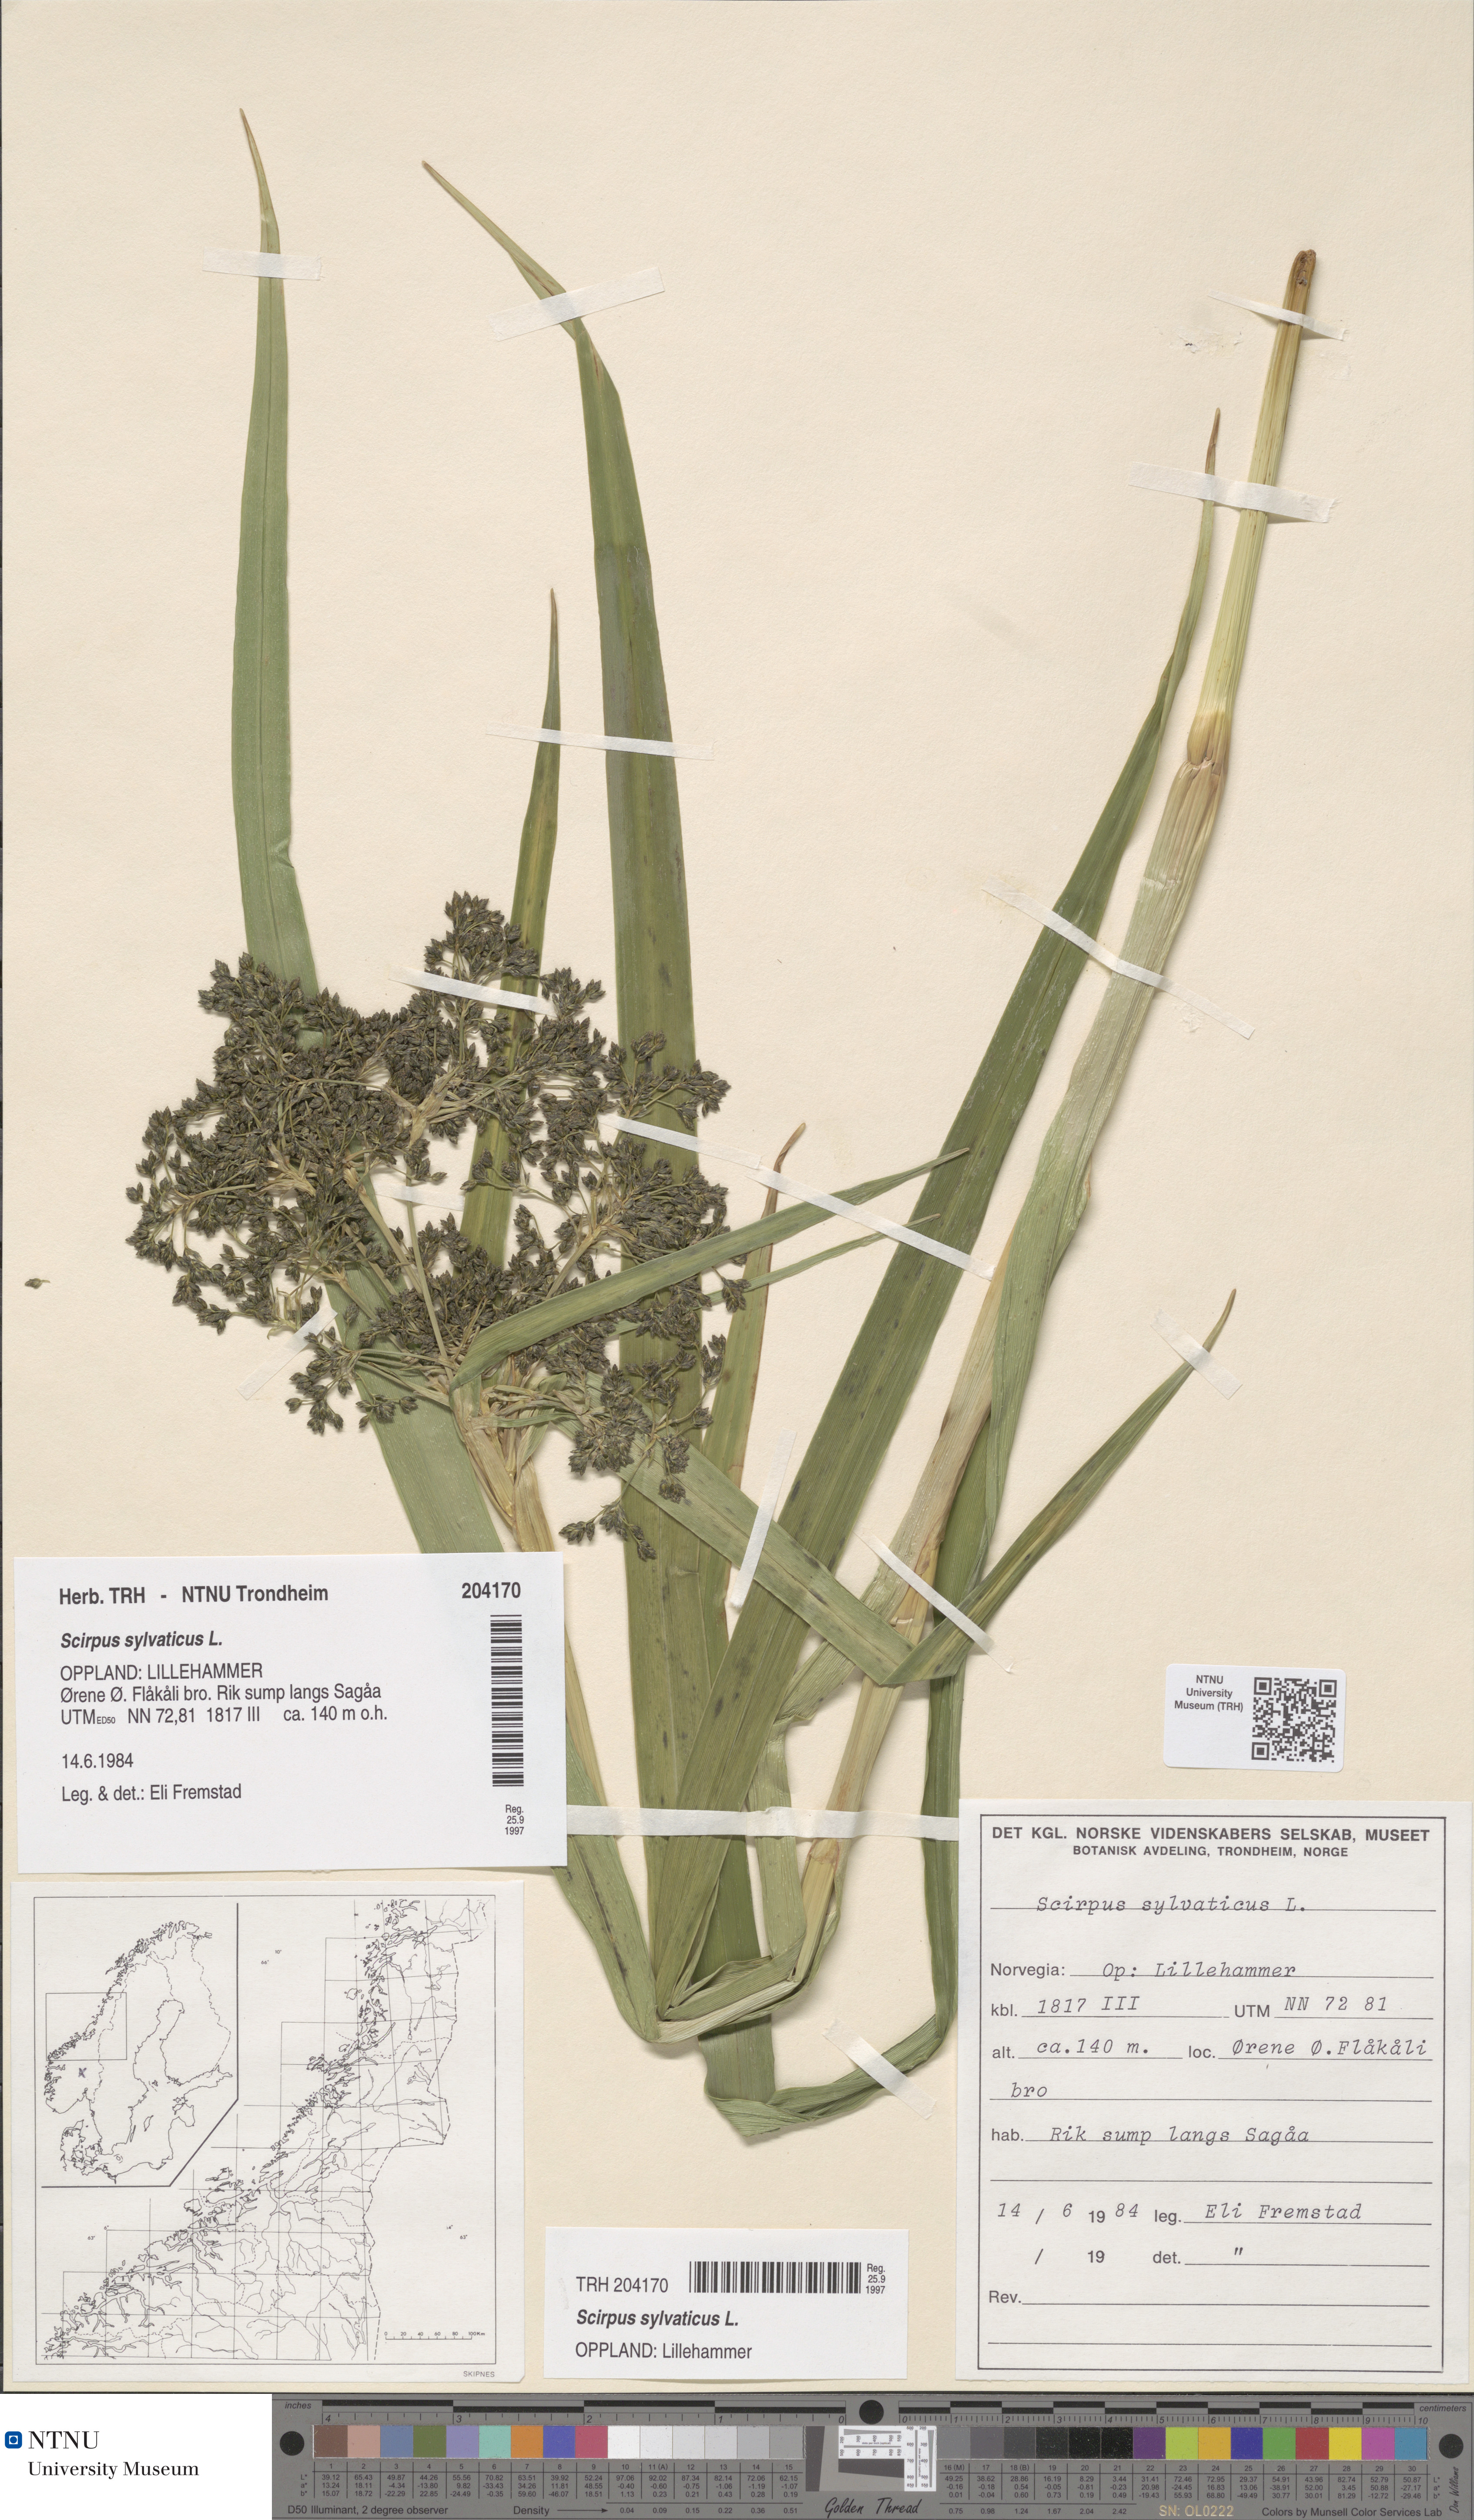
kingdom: Plantae
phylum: Tracheophyta
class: Liliopsida
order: Poales
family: Cyperaceae
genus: Scirpus
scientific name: Scirpus sylvaticus
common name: Wood club-rush
